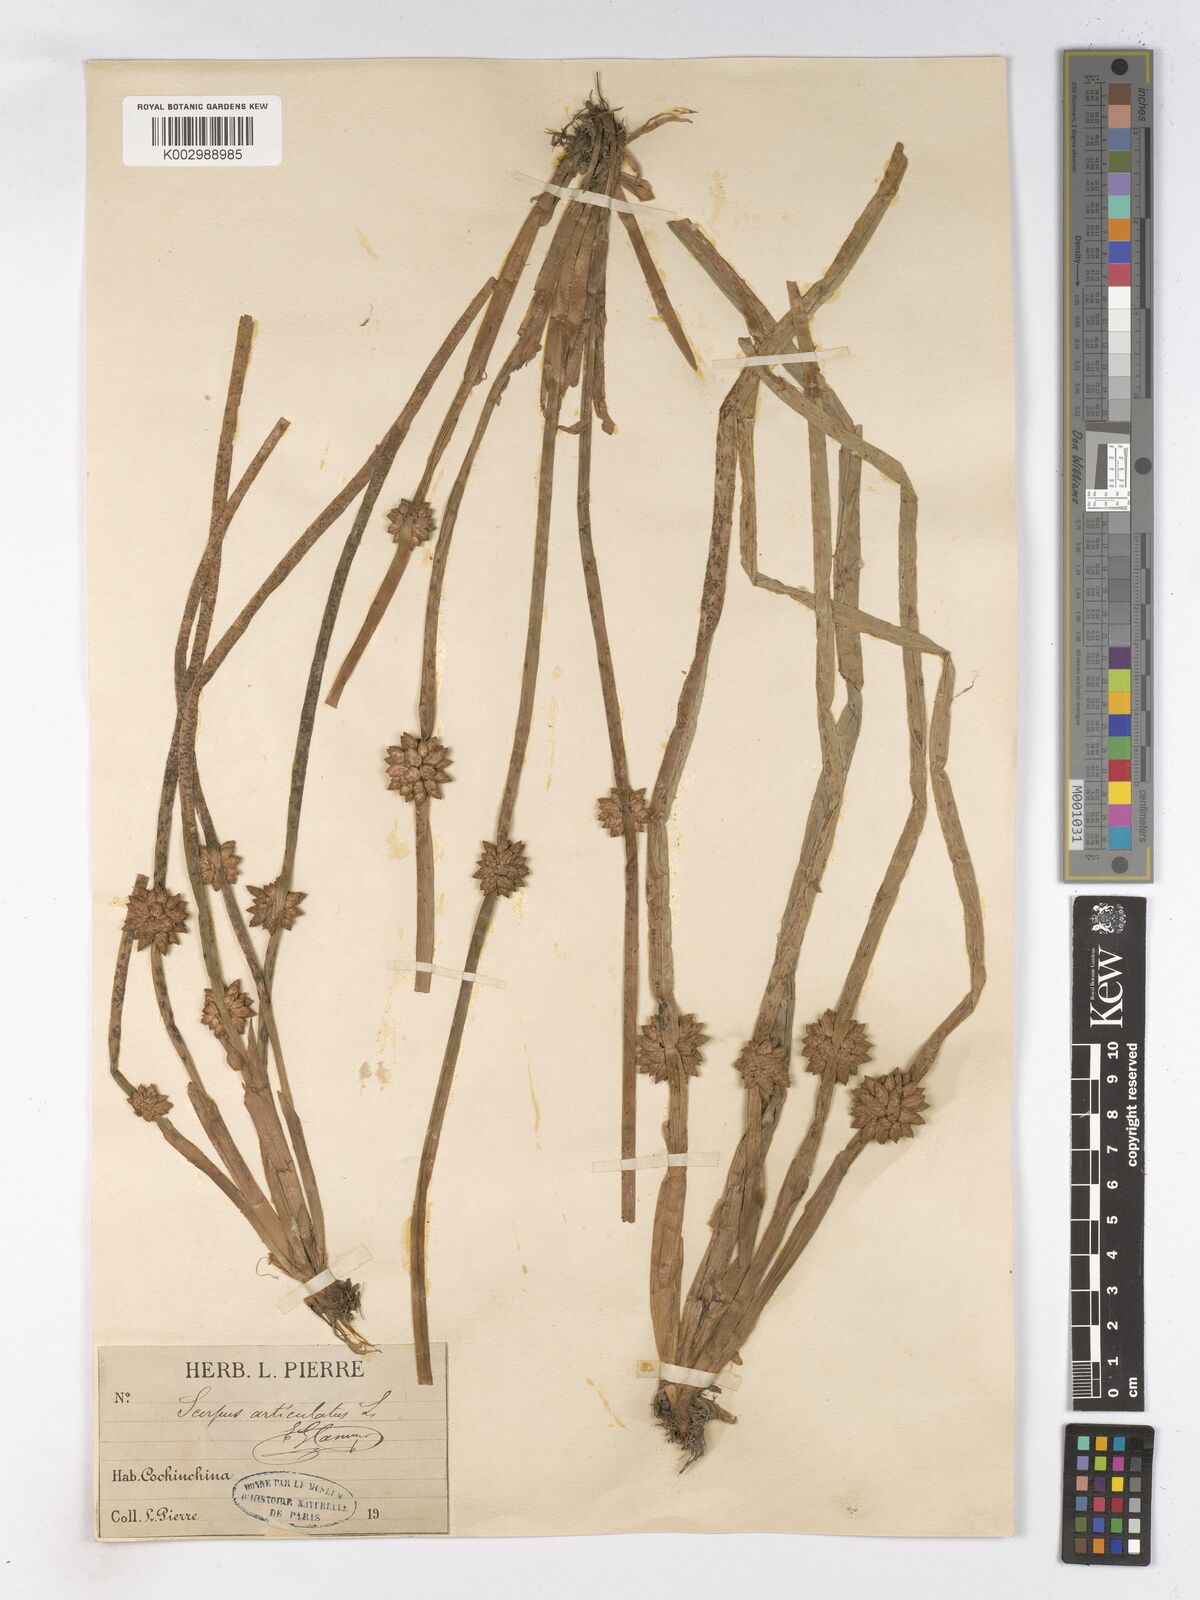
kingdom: Plantae
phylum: Tracheophyta
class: Liliopsida
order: Poales
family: Cyperaceae
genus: Schoenoplectiella
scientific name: Schoenoplectiella articulata
